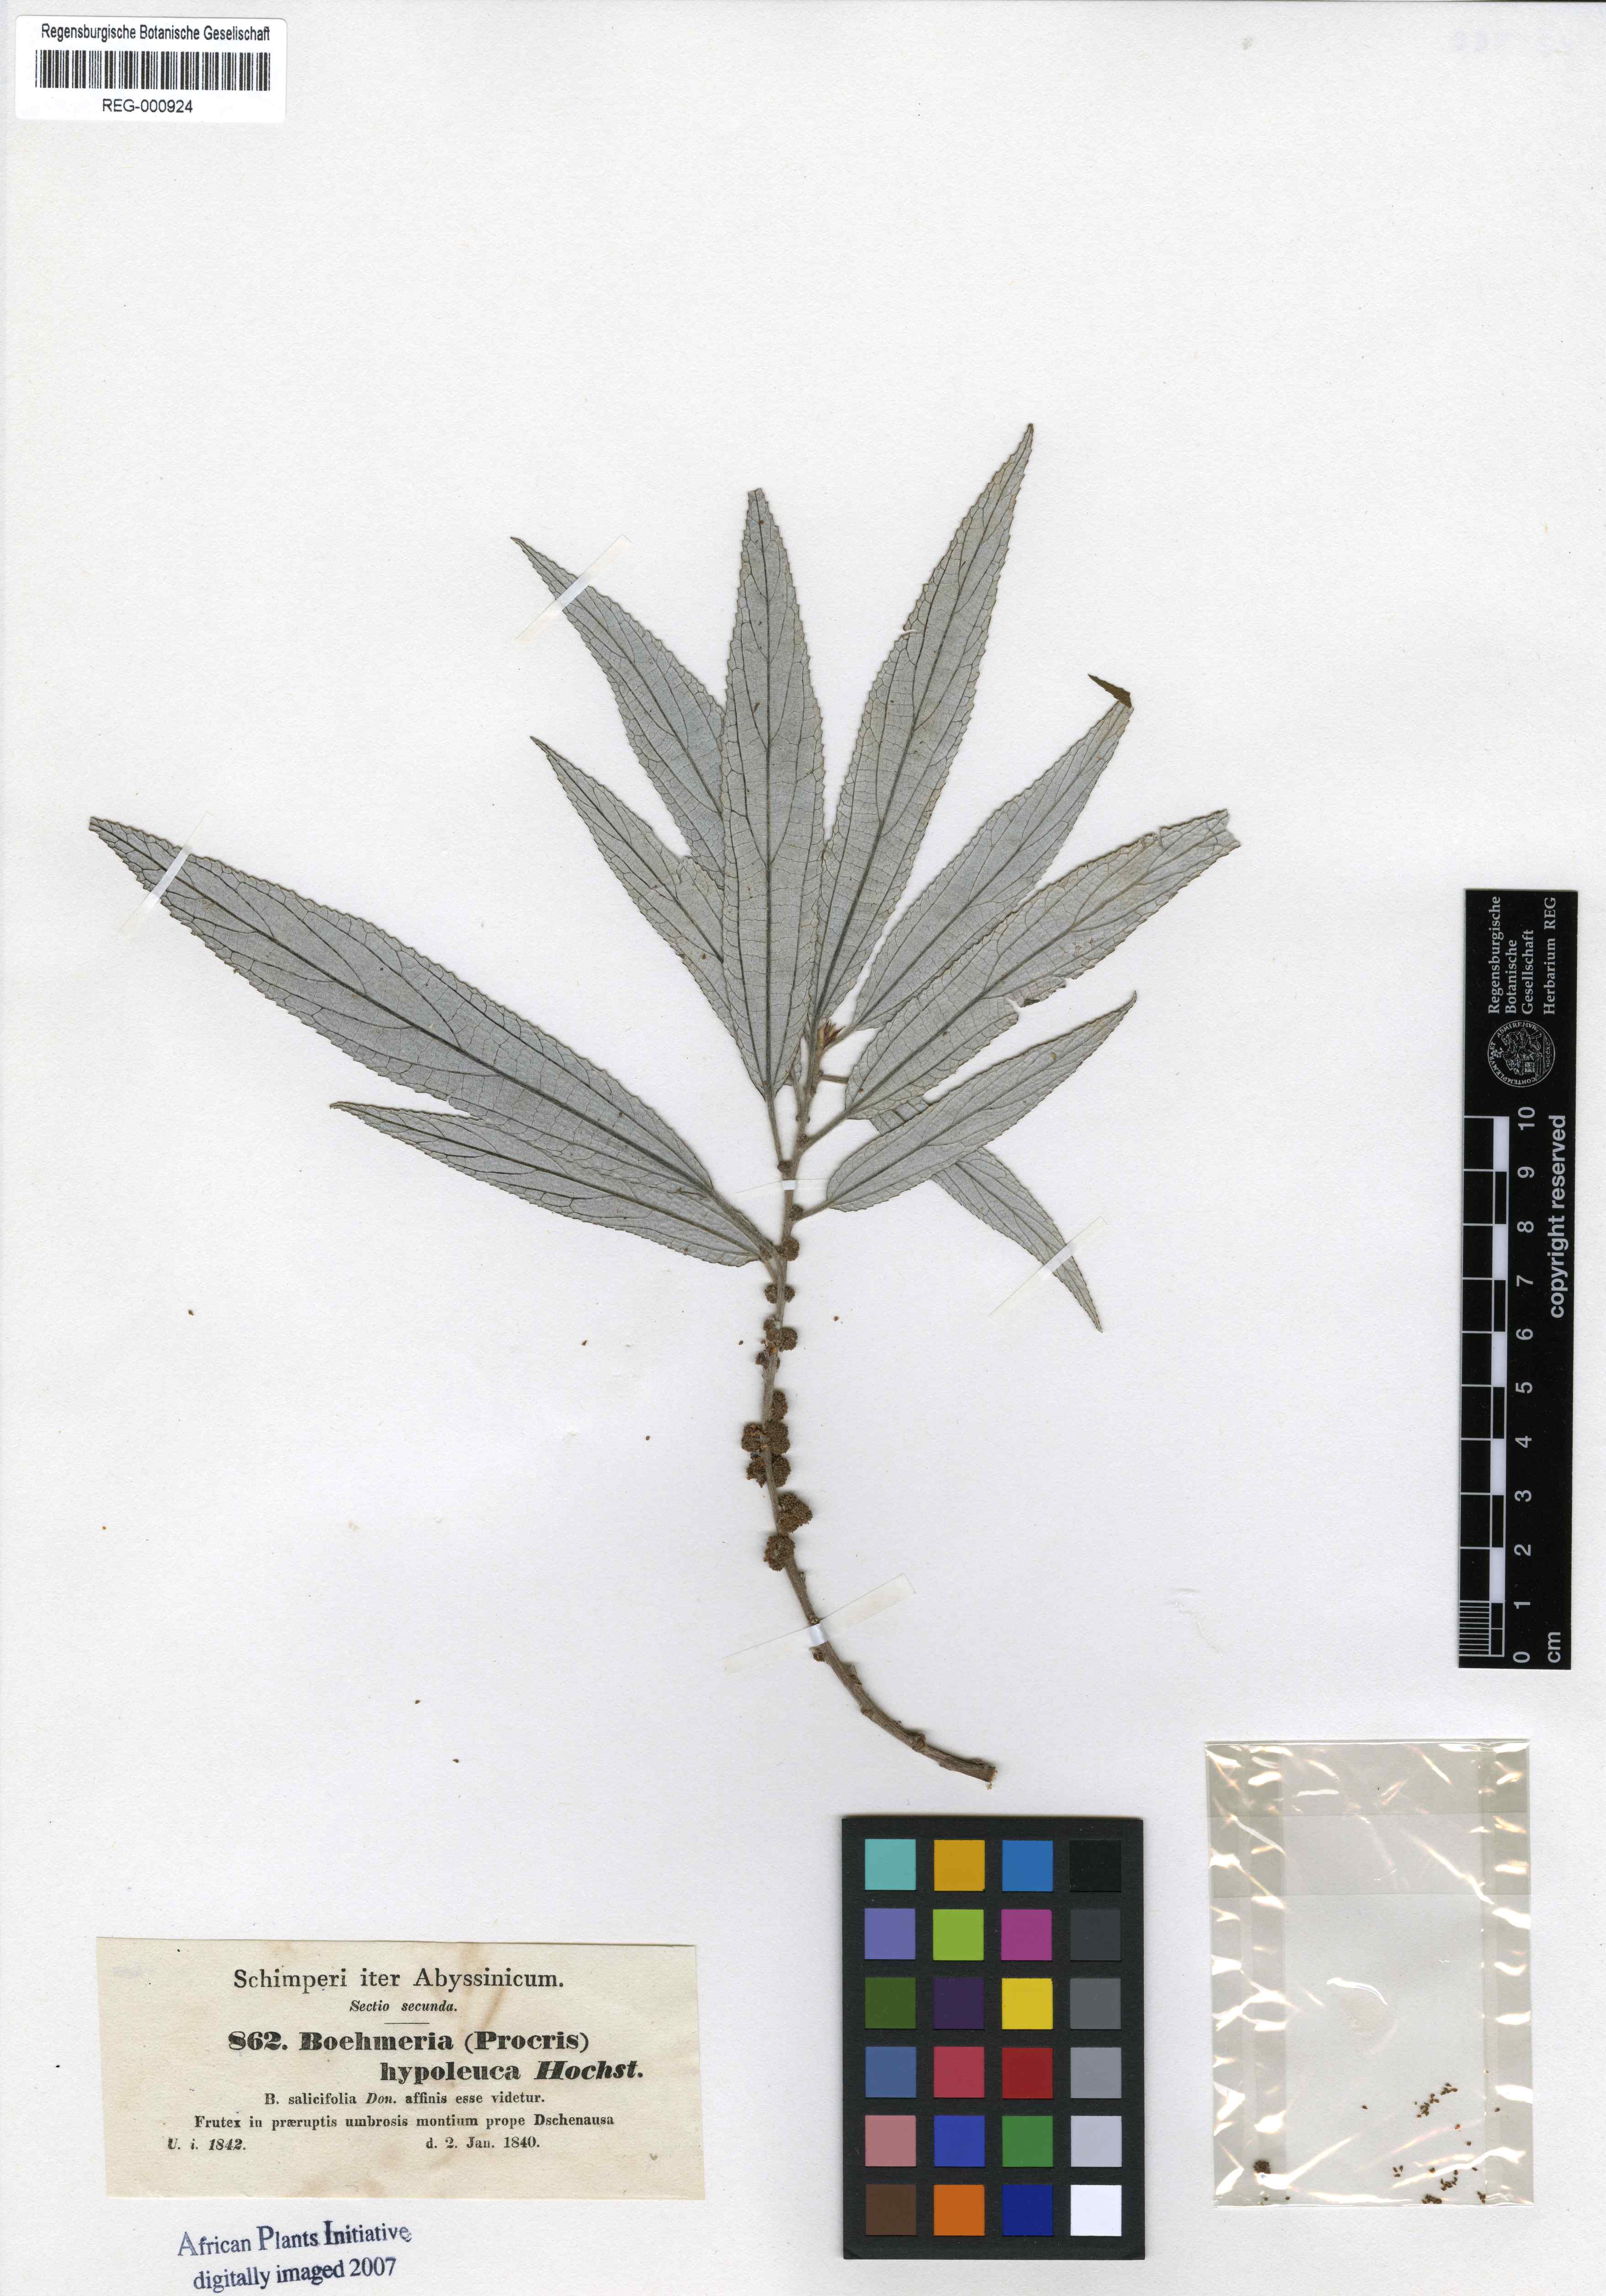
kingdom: Plantae
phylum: Tracheophyta
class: Magnoliopsida
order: Rosales
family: Urticaceae
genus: Debregeasia
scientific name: Debregeasia saeneb
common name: Himalayan wild rhea
